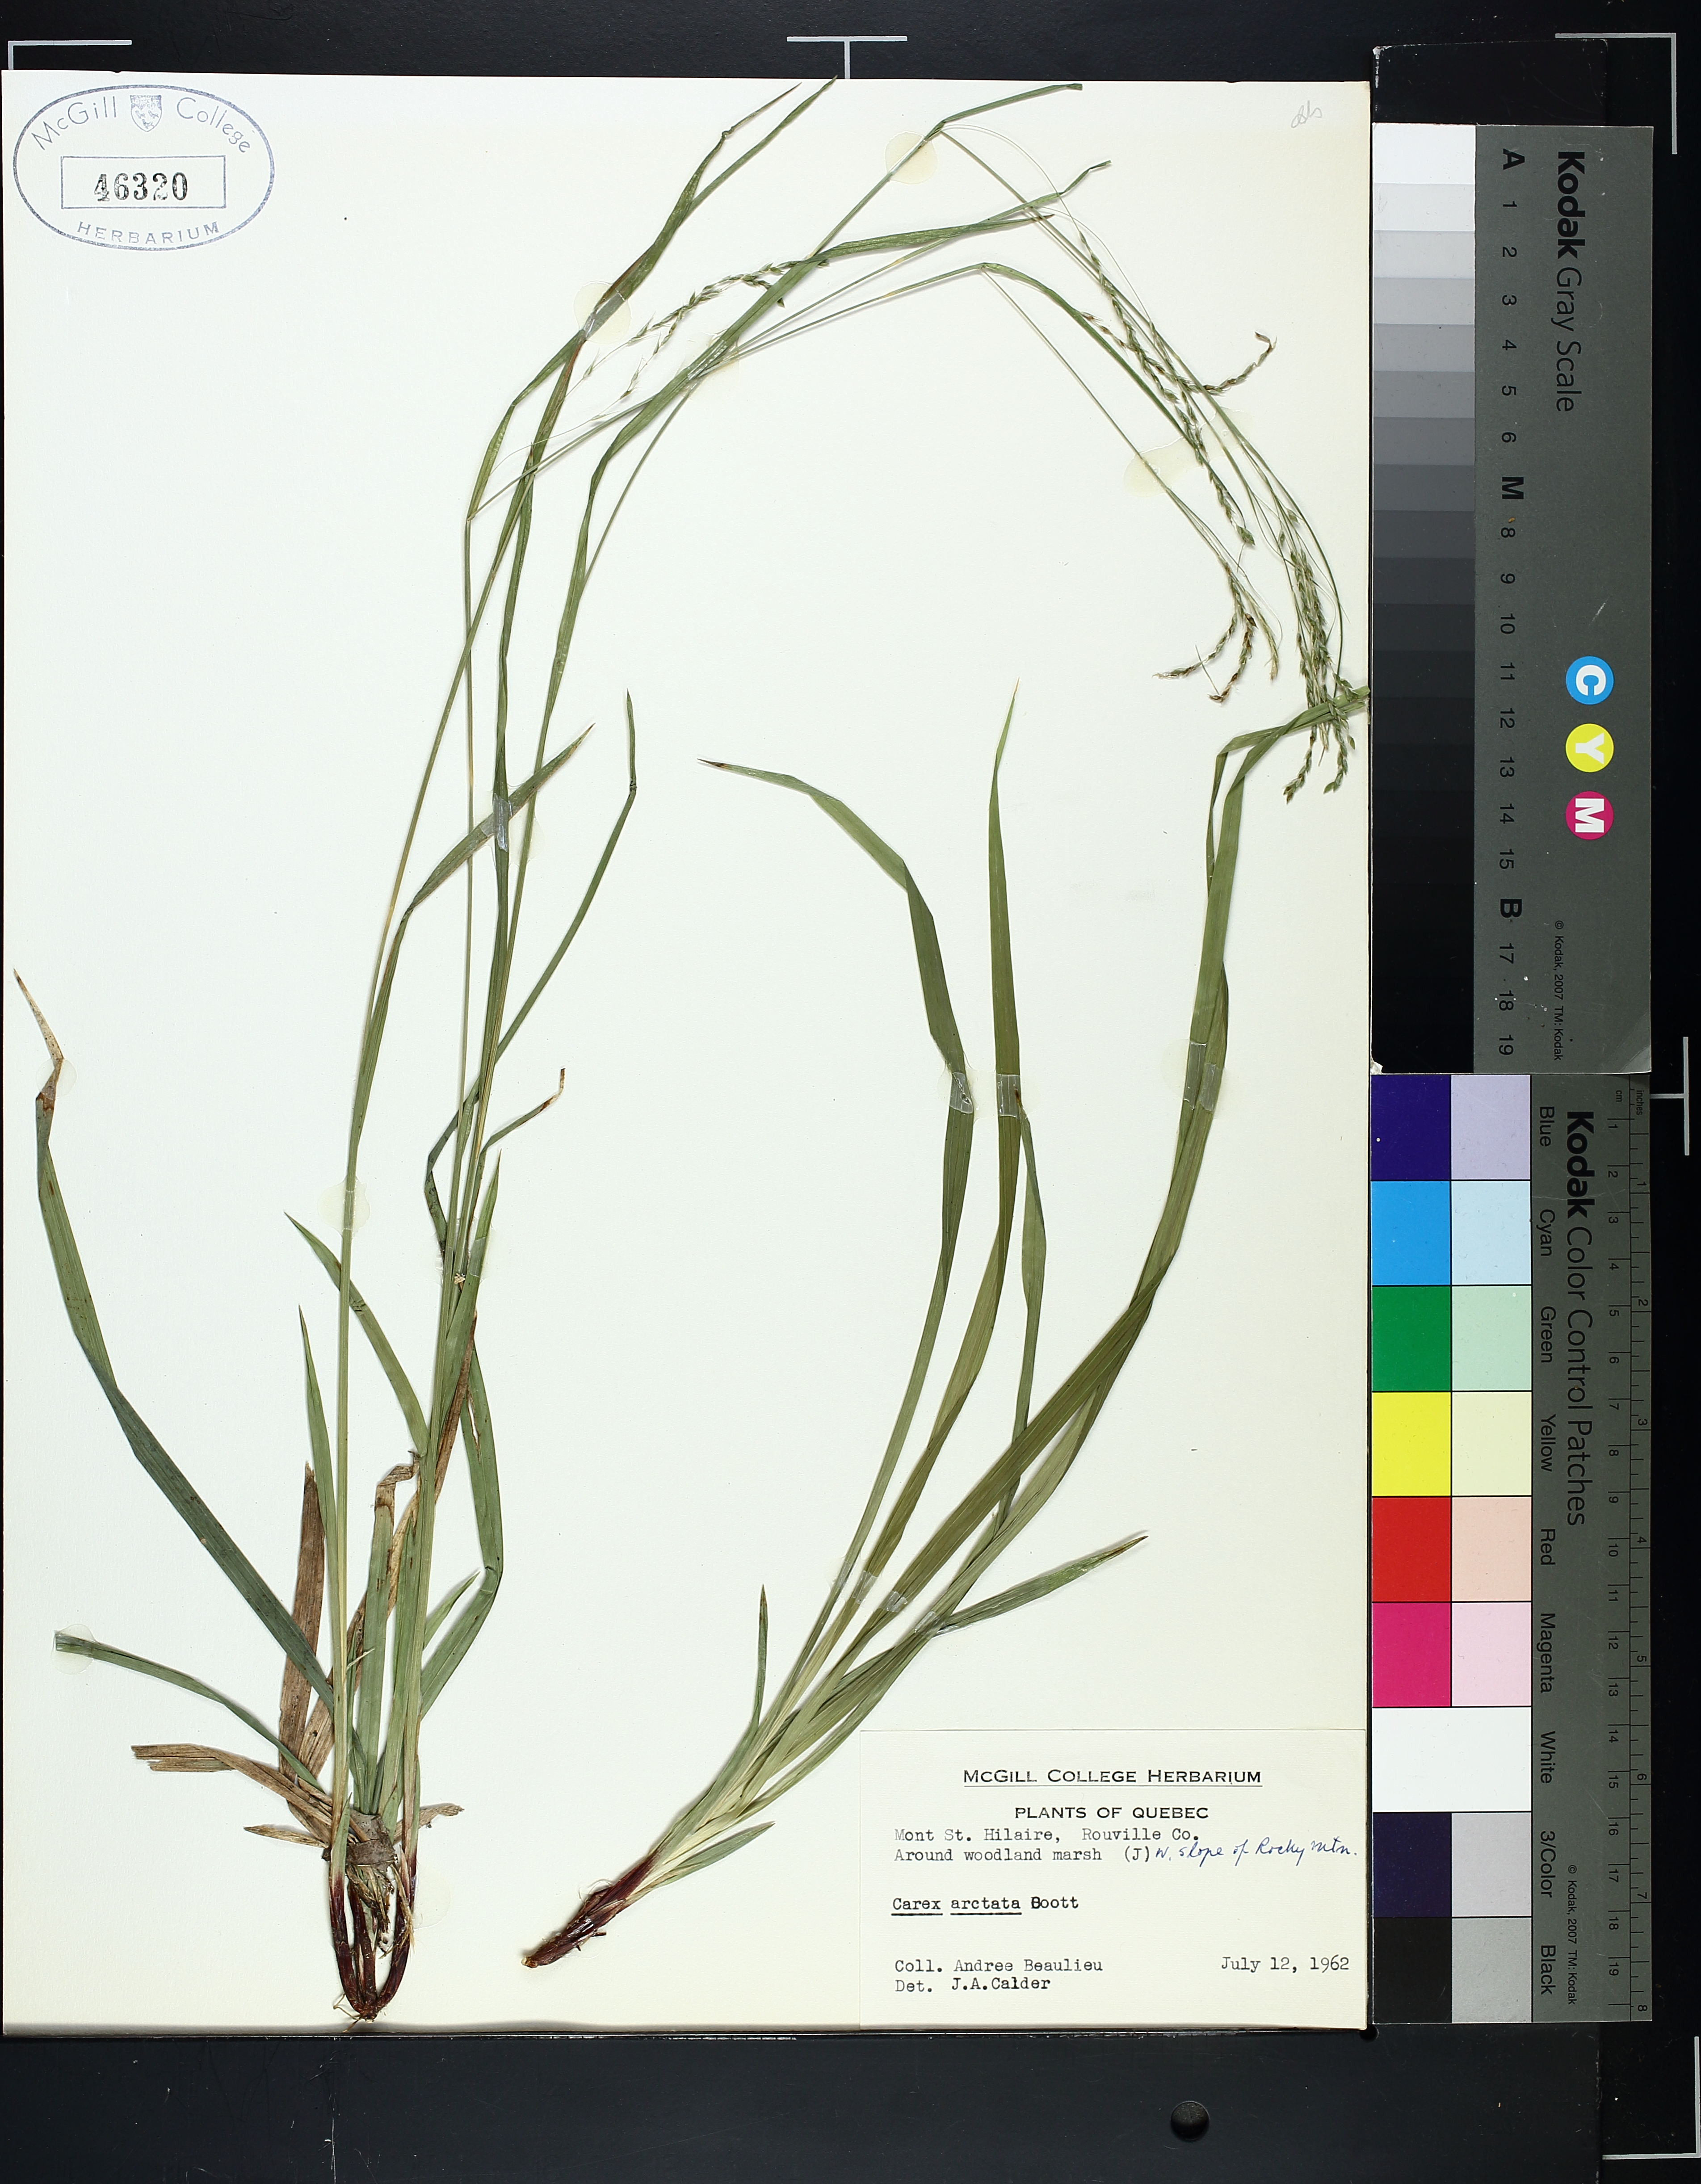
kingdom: Plantae
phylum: Tracheophyta
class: Liliopsida
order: Poales
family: Cyperaceae
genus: Carex
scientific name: Carex arctata
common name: Black sedge
